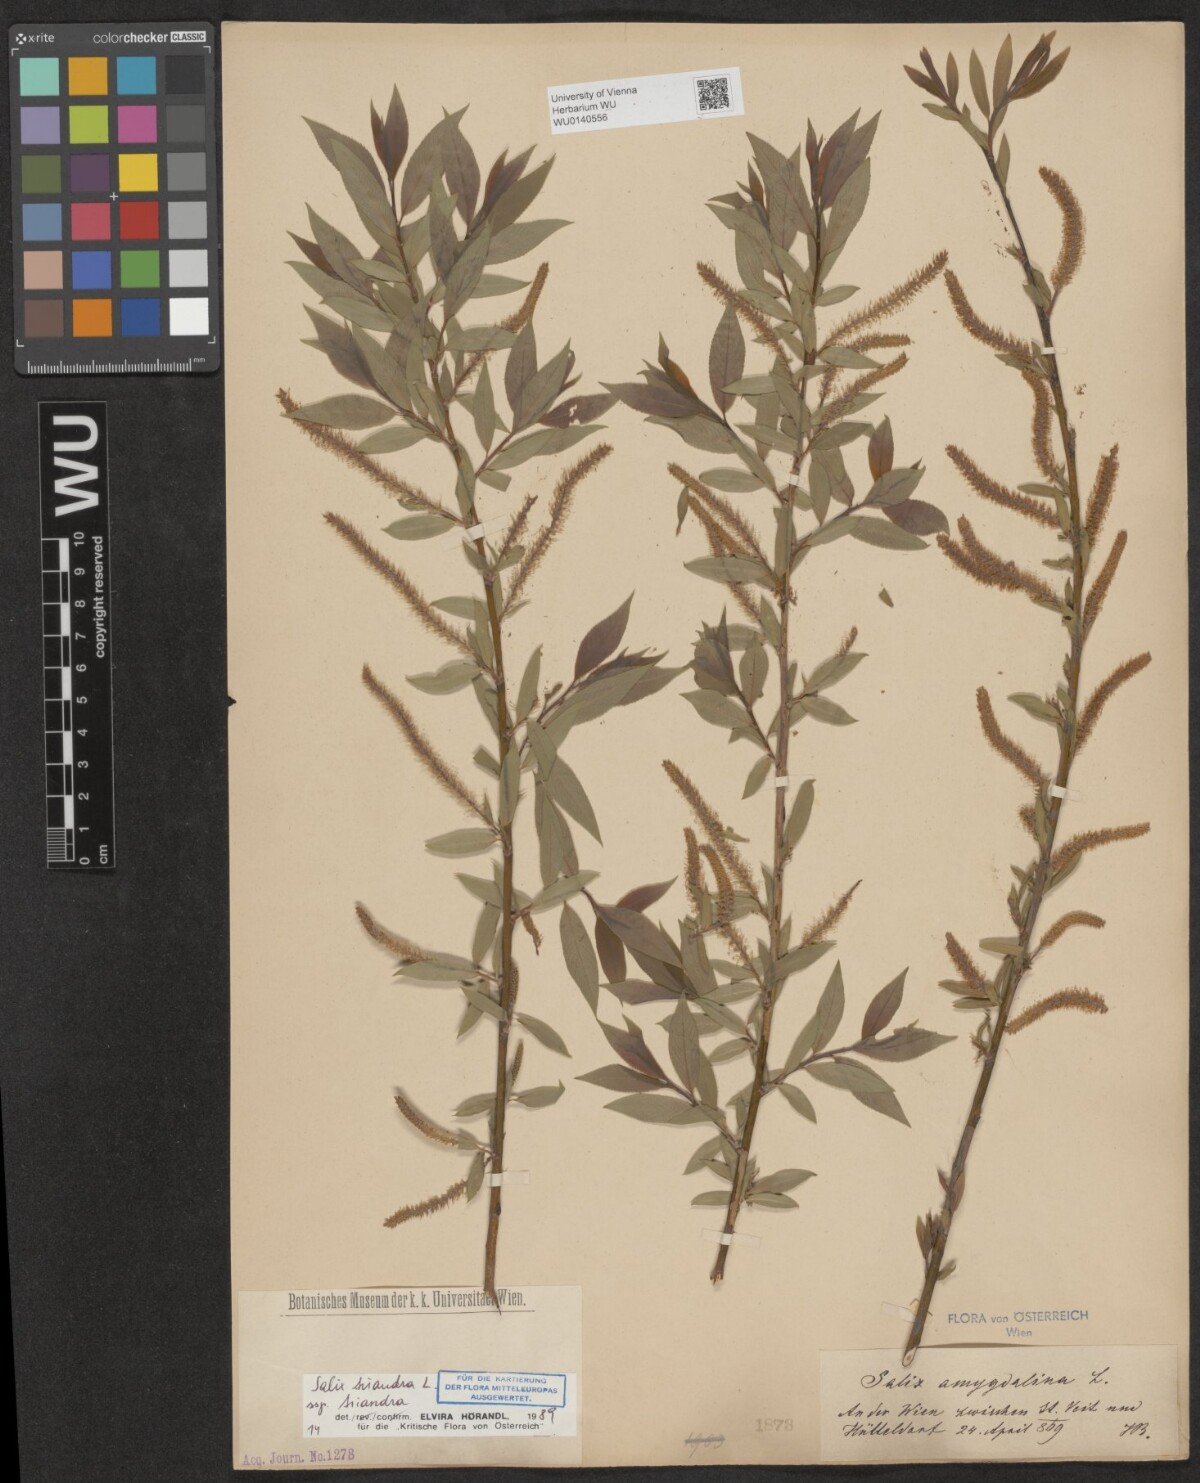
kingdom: Plantae
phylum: Tracheophyta
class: Magnoliopsida
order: Malpighiales
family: Salicaceae
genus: Salix
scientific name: Salix triandra
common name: Almond willow
